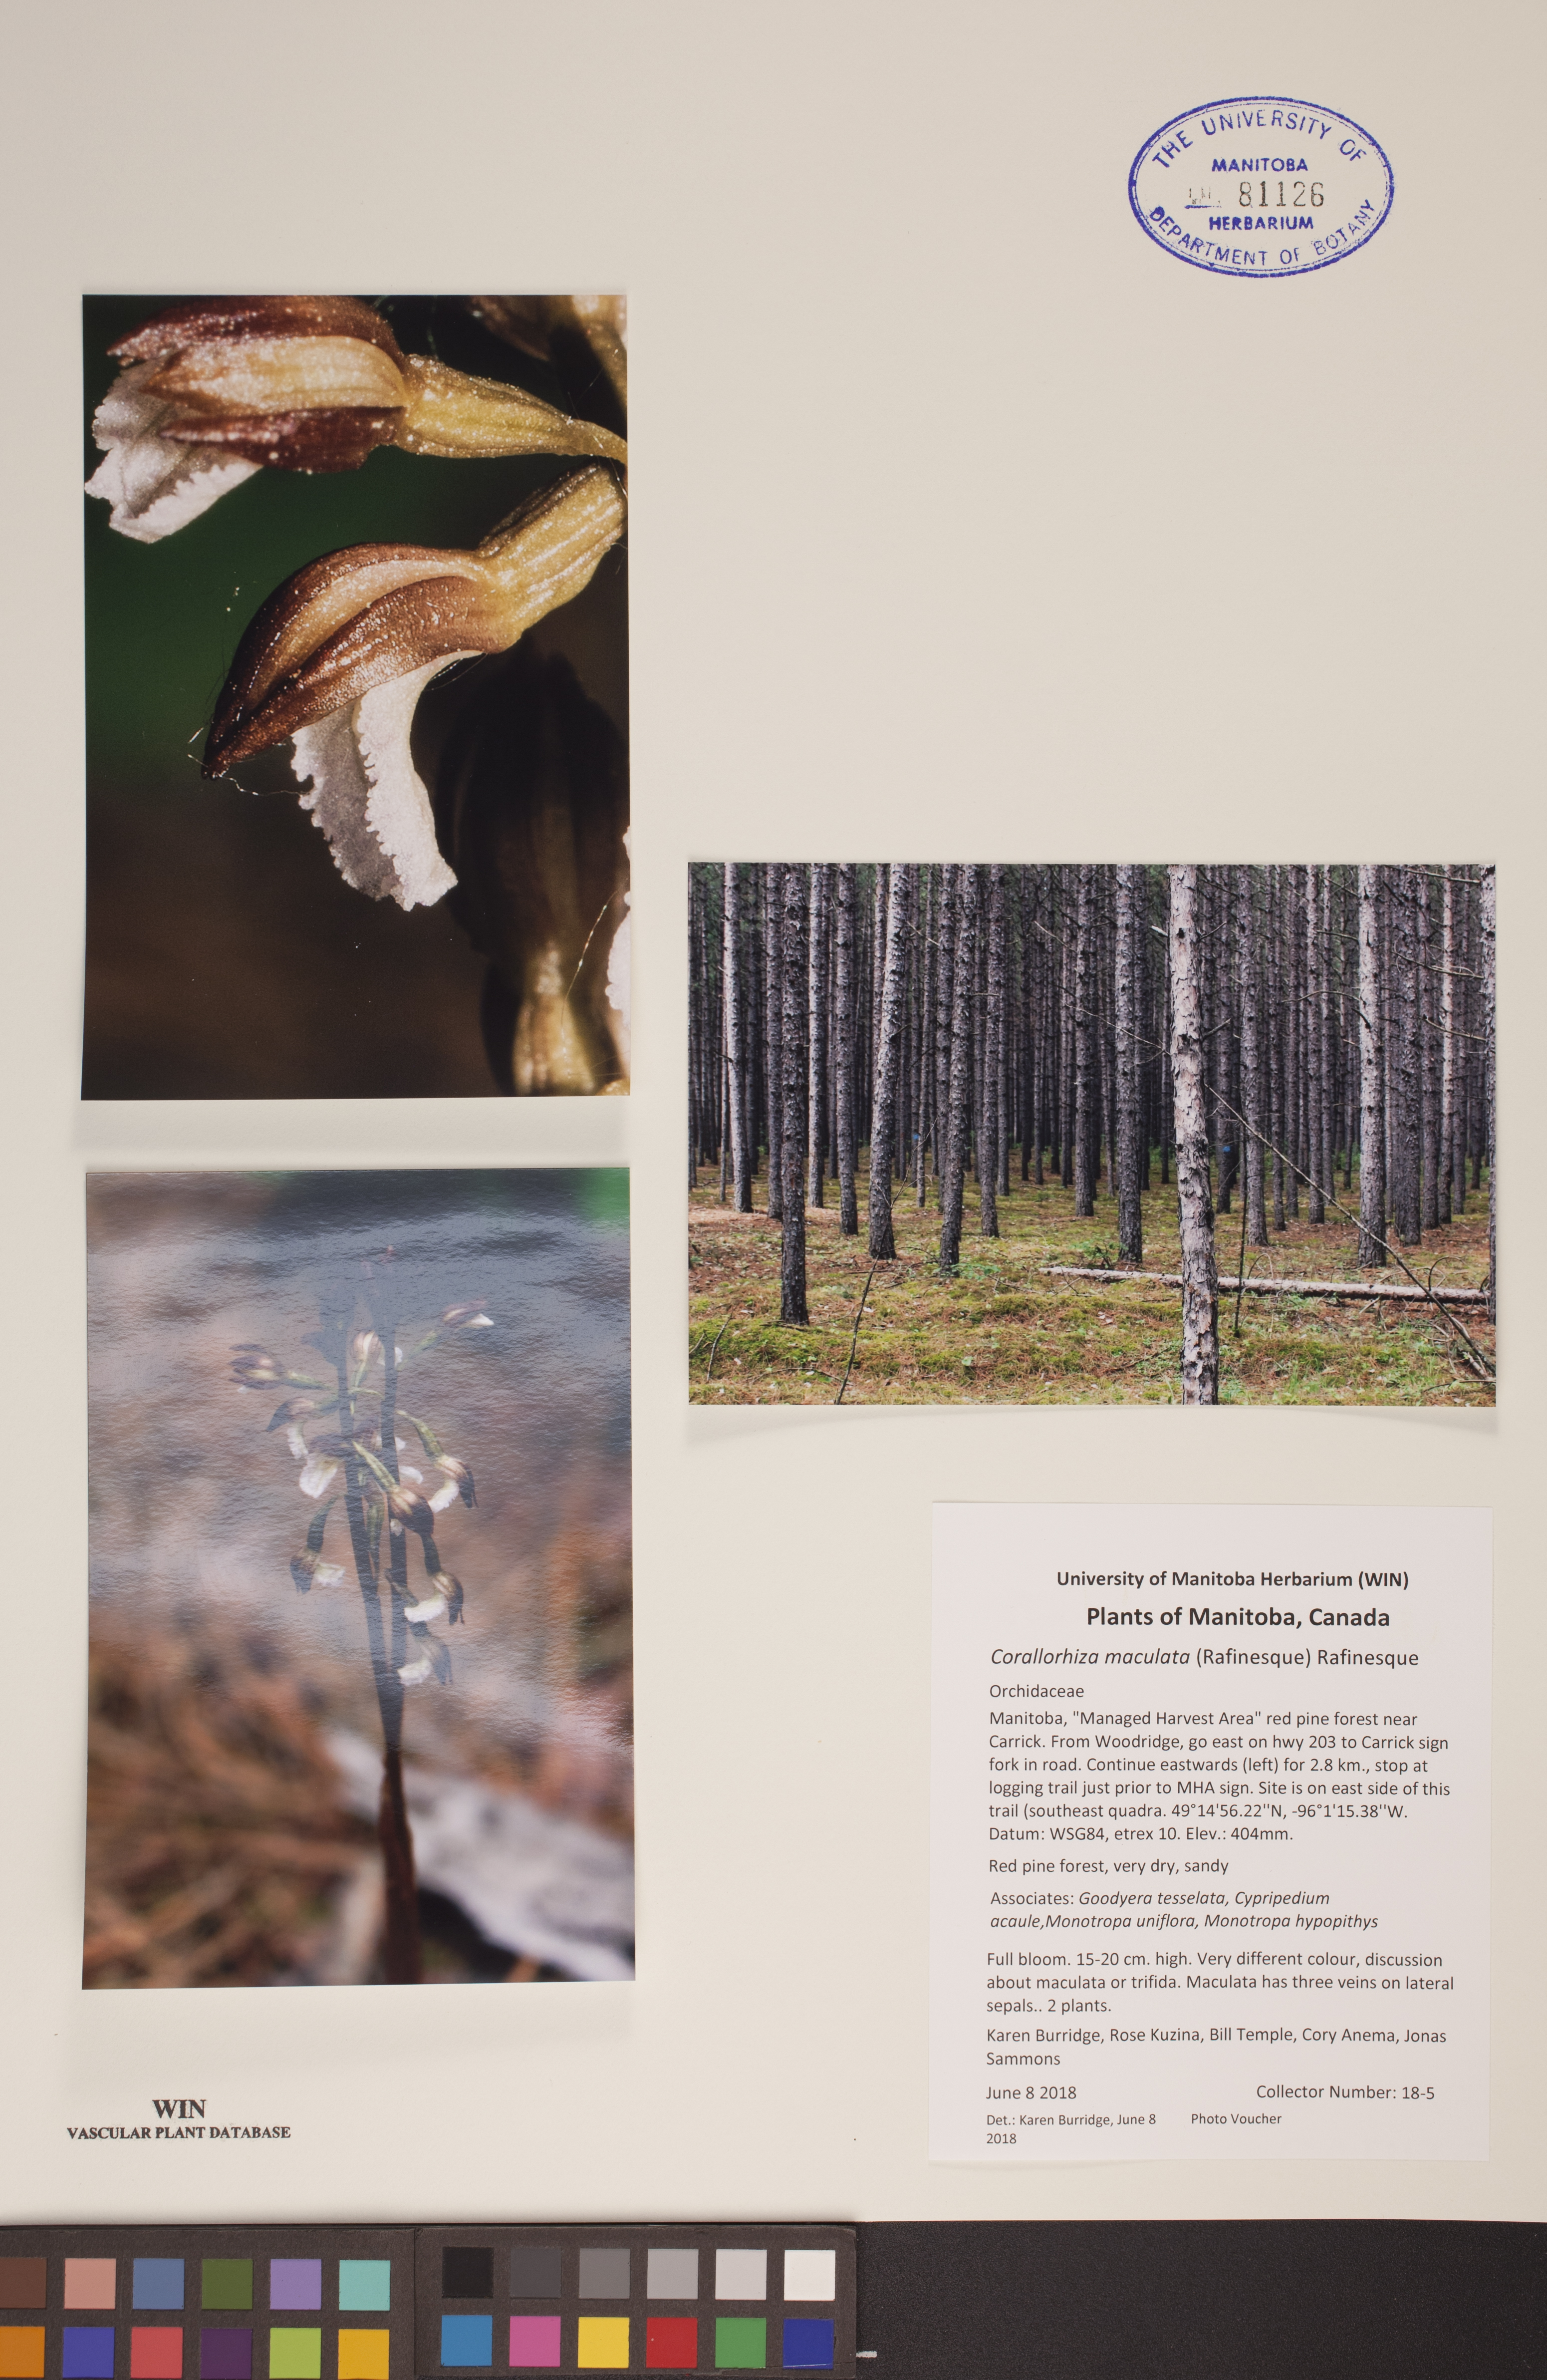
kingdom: Plantae
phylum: Tracheophyta
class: Liliopsida
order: Asparagales
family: Orchidaceae
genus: Corallorhiza
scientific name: Corallorhiza maculata
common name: Spotted coralroot
